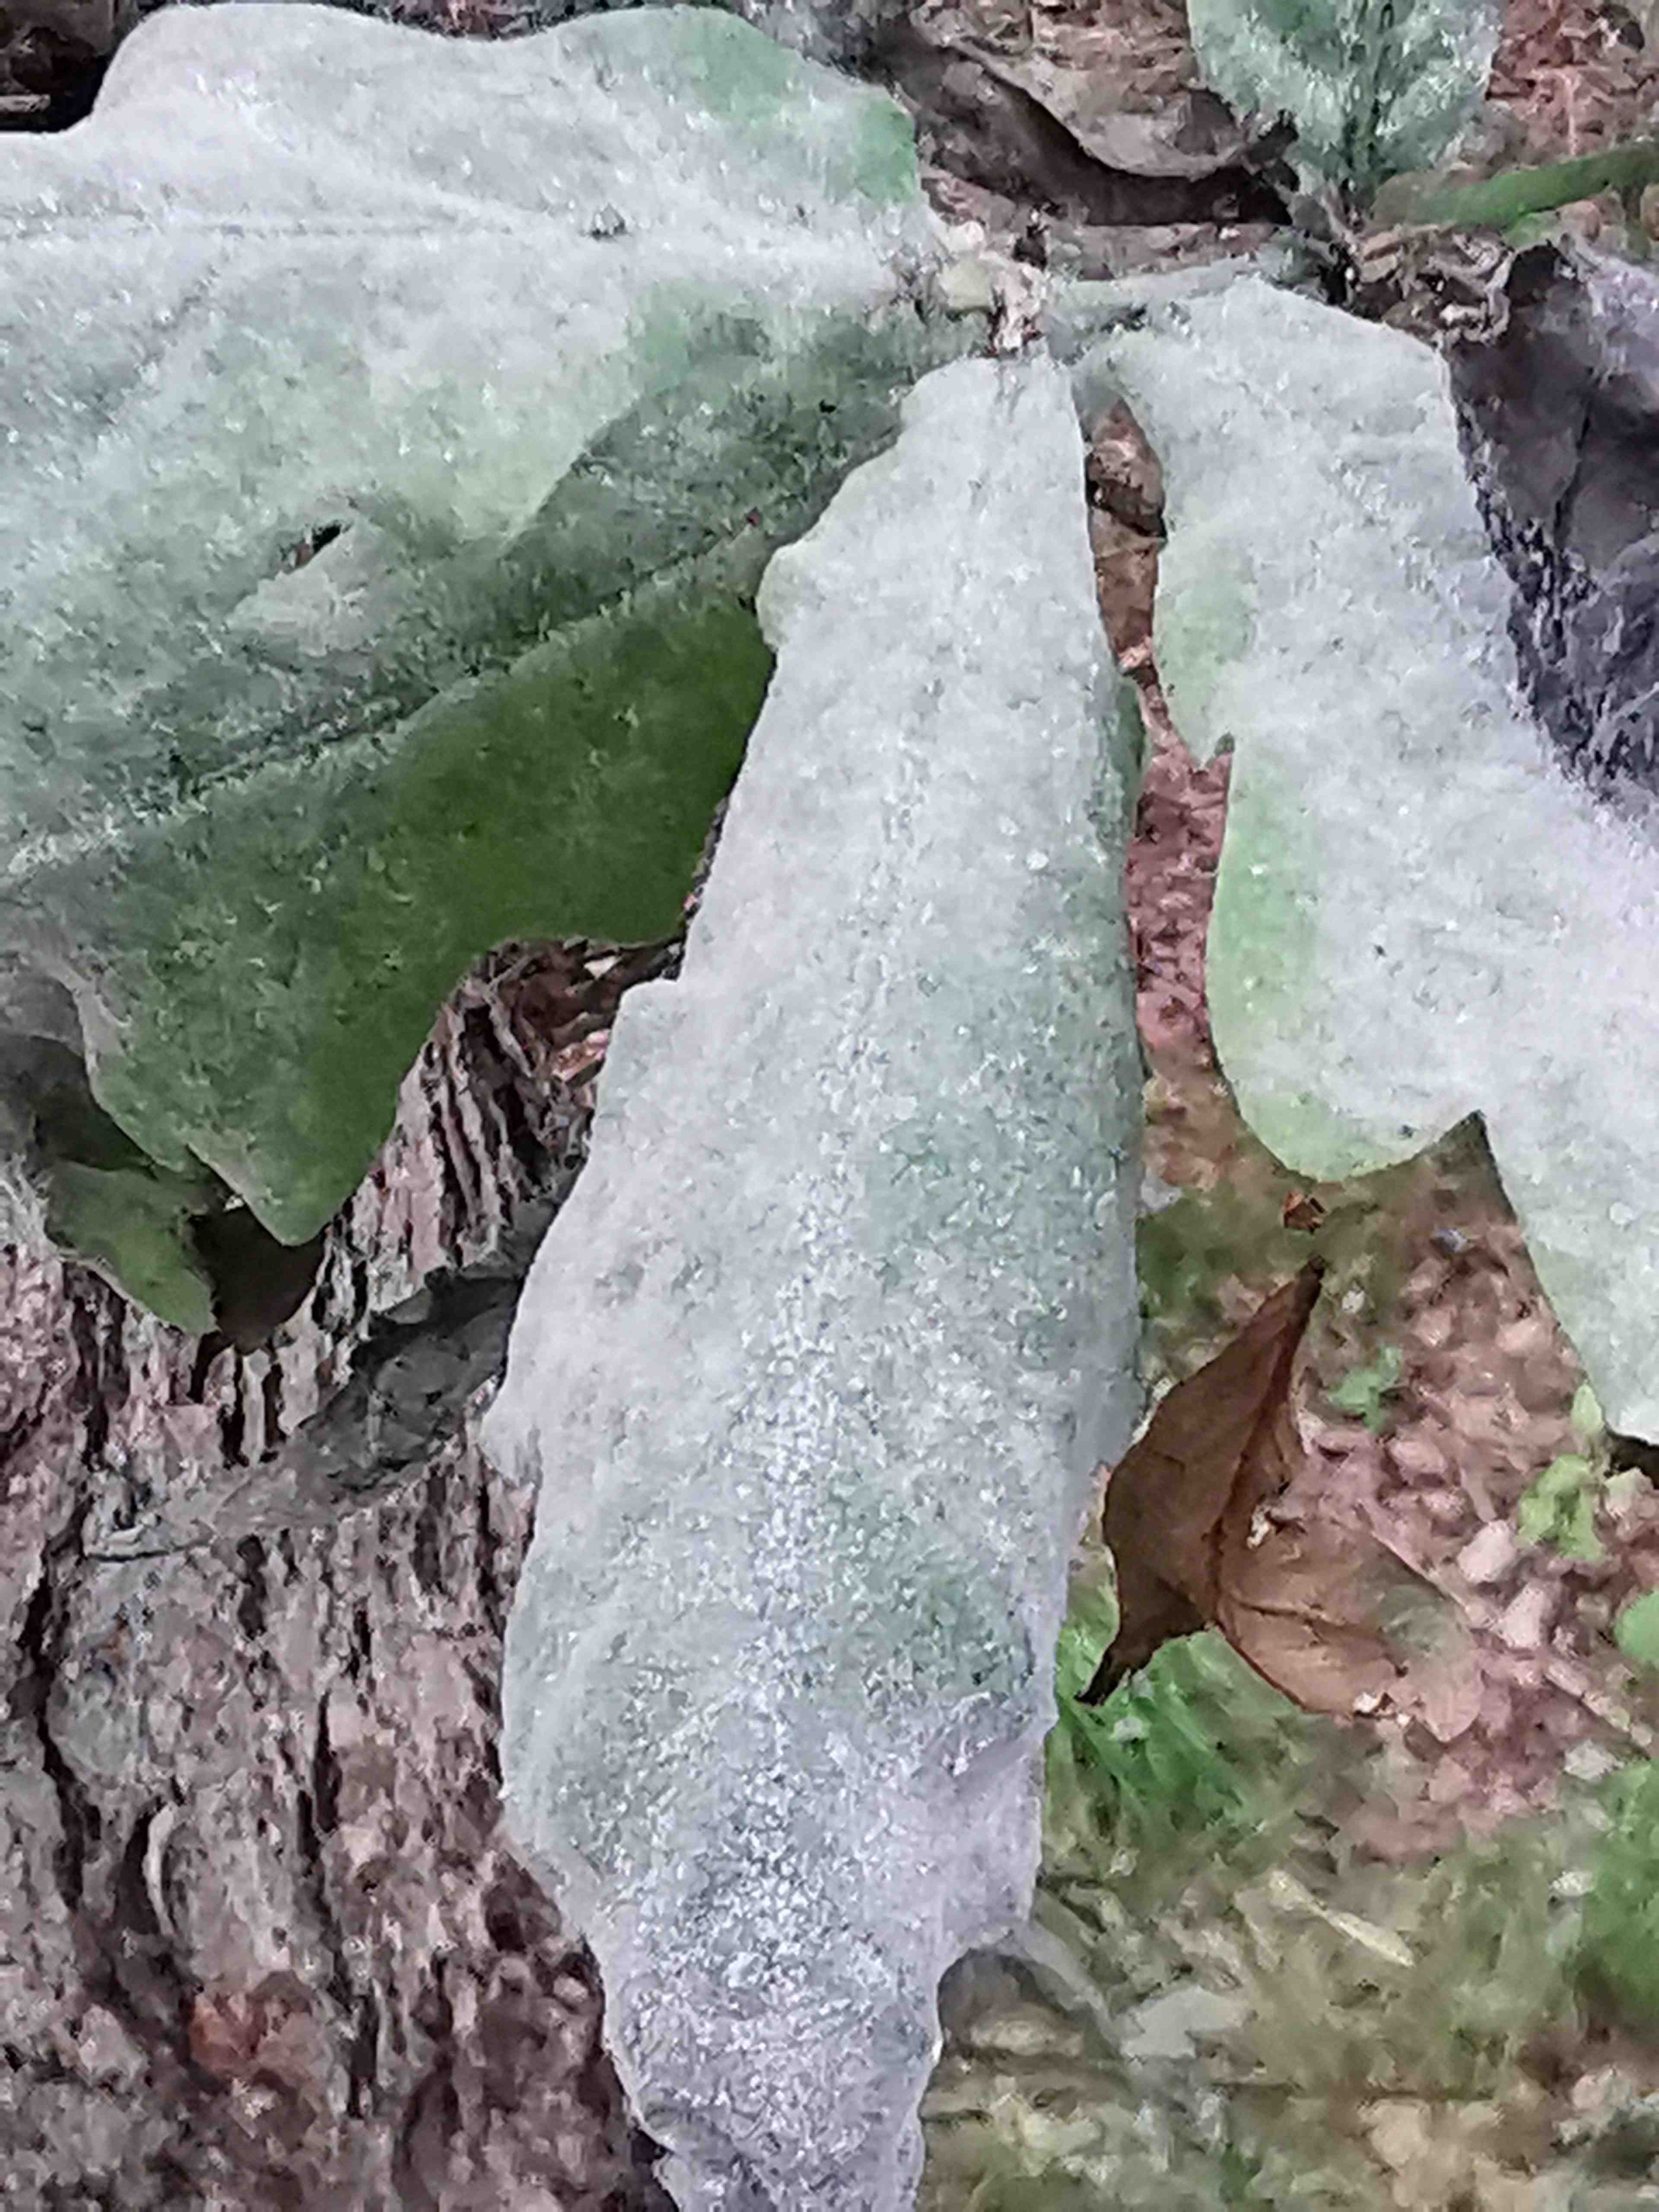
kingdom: Fungi
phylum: Ascomycota
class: Leotiomycetes
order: Helotiales
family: Erysiphaceae
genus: Erysiphe
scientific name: Erysiphe alphitoides
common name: ege-meldug
